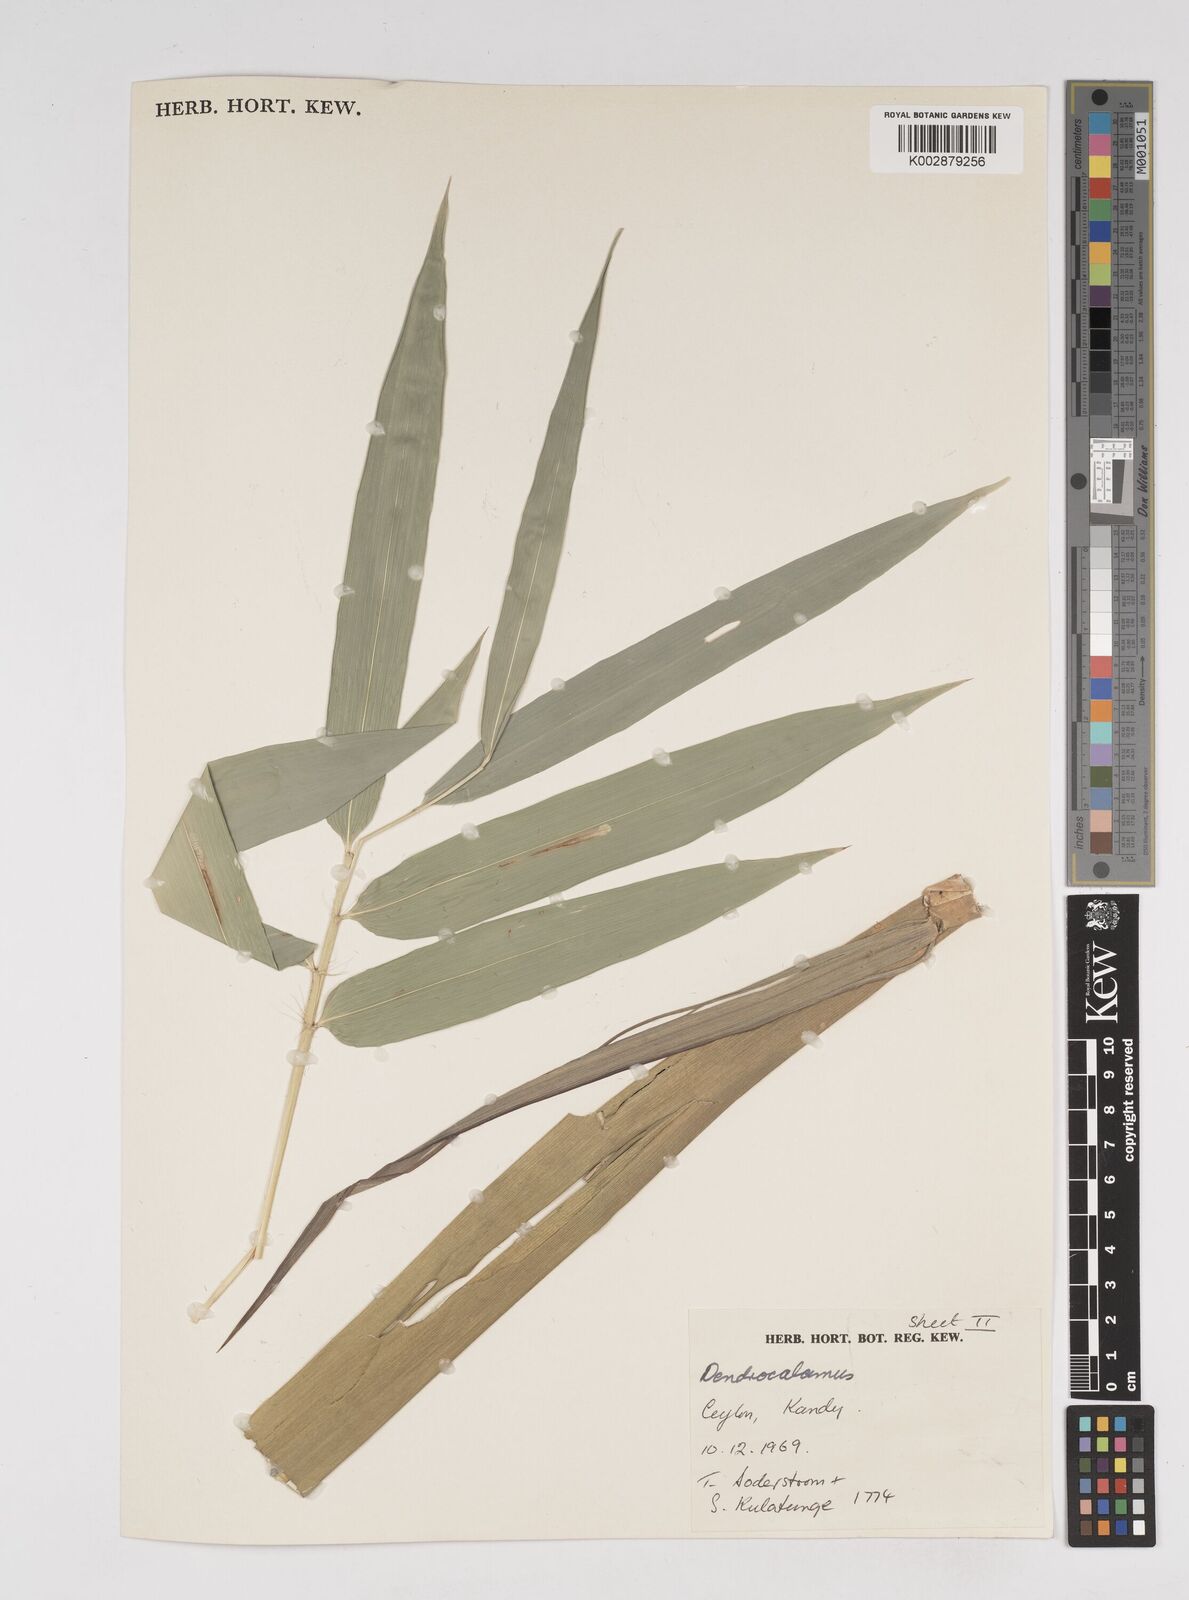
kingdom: Plantae
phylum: Tracheophyta
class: Liliopsida
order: Poales
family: Poaceae
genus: Dendrocalamus
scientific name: Dendrocalamus
